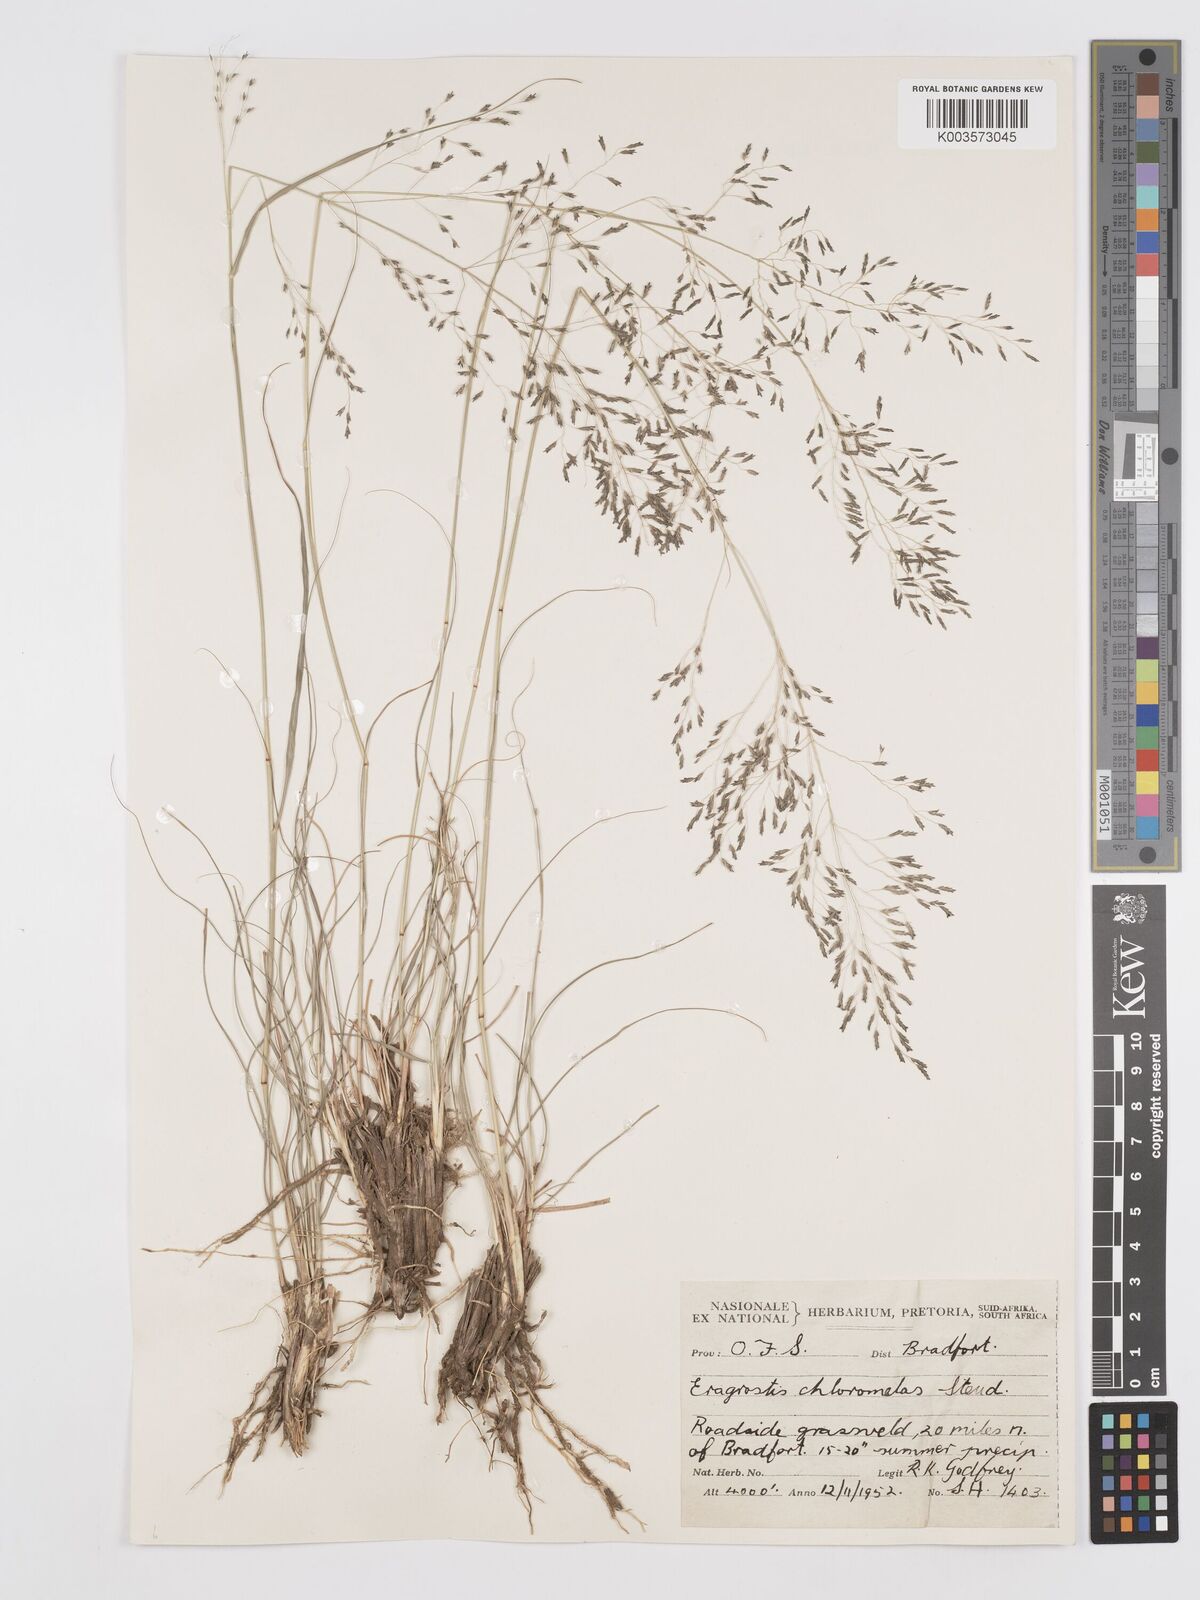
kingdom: Plantae
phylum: Tracheophyta
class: Liliopsida
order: Poales
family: Poaceae
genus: Eragrostis
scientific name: Eragrostis curvula
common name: African love-grass
